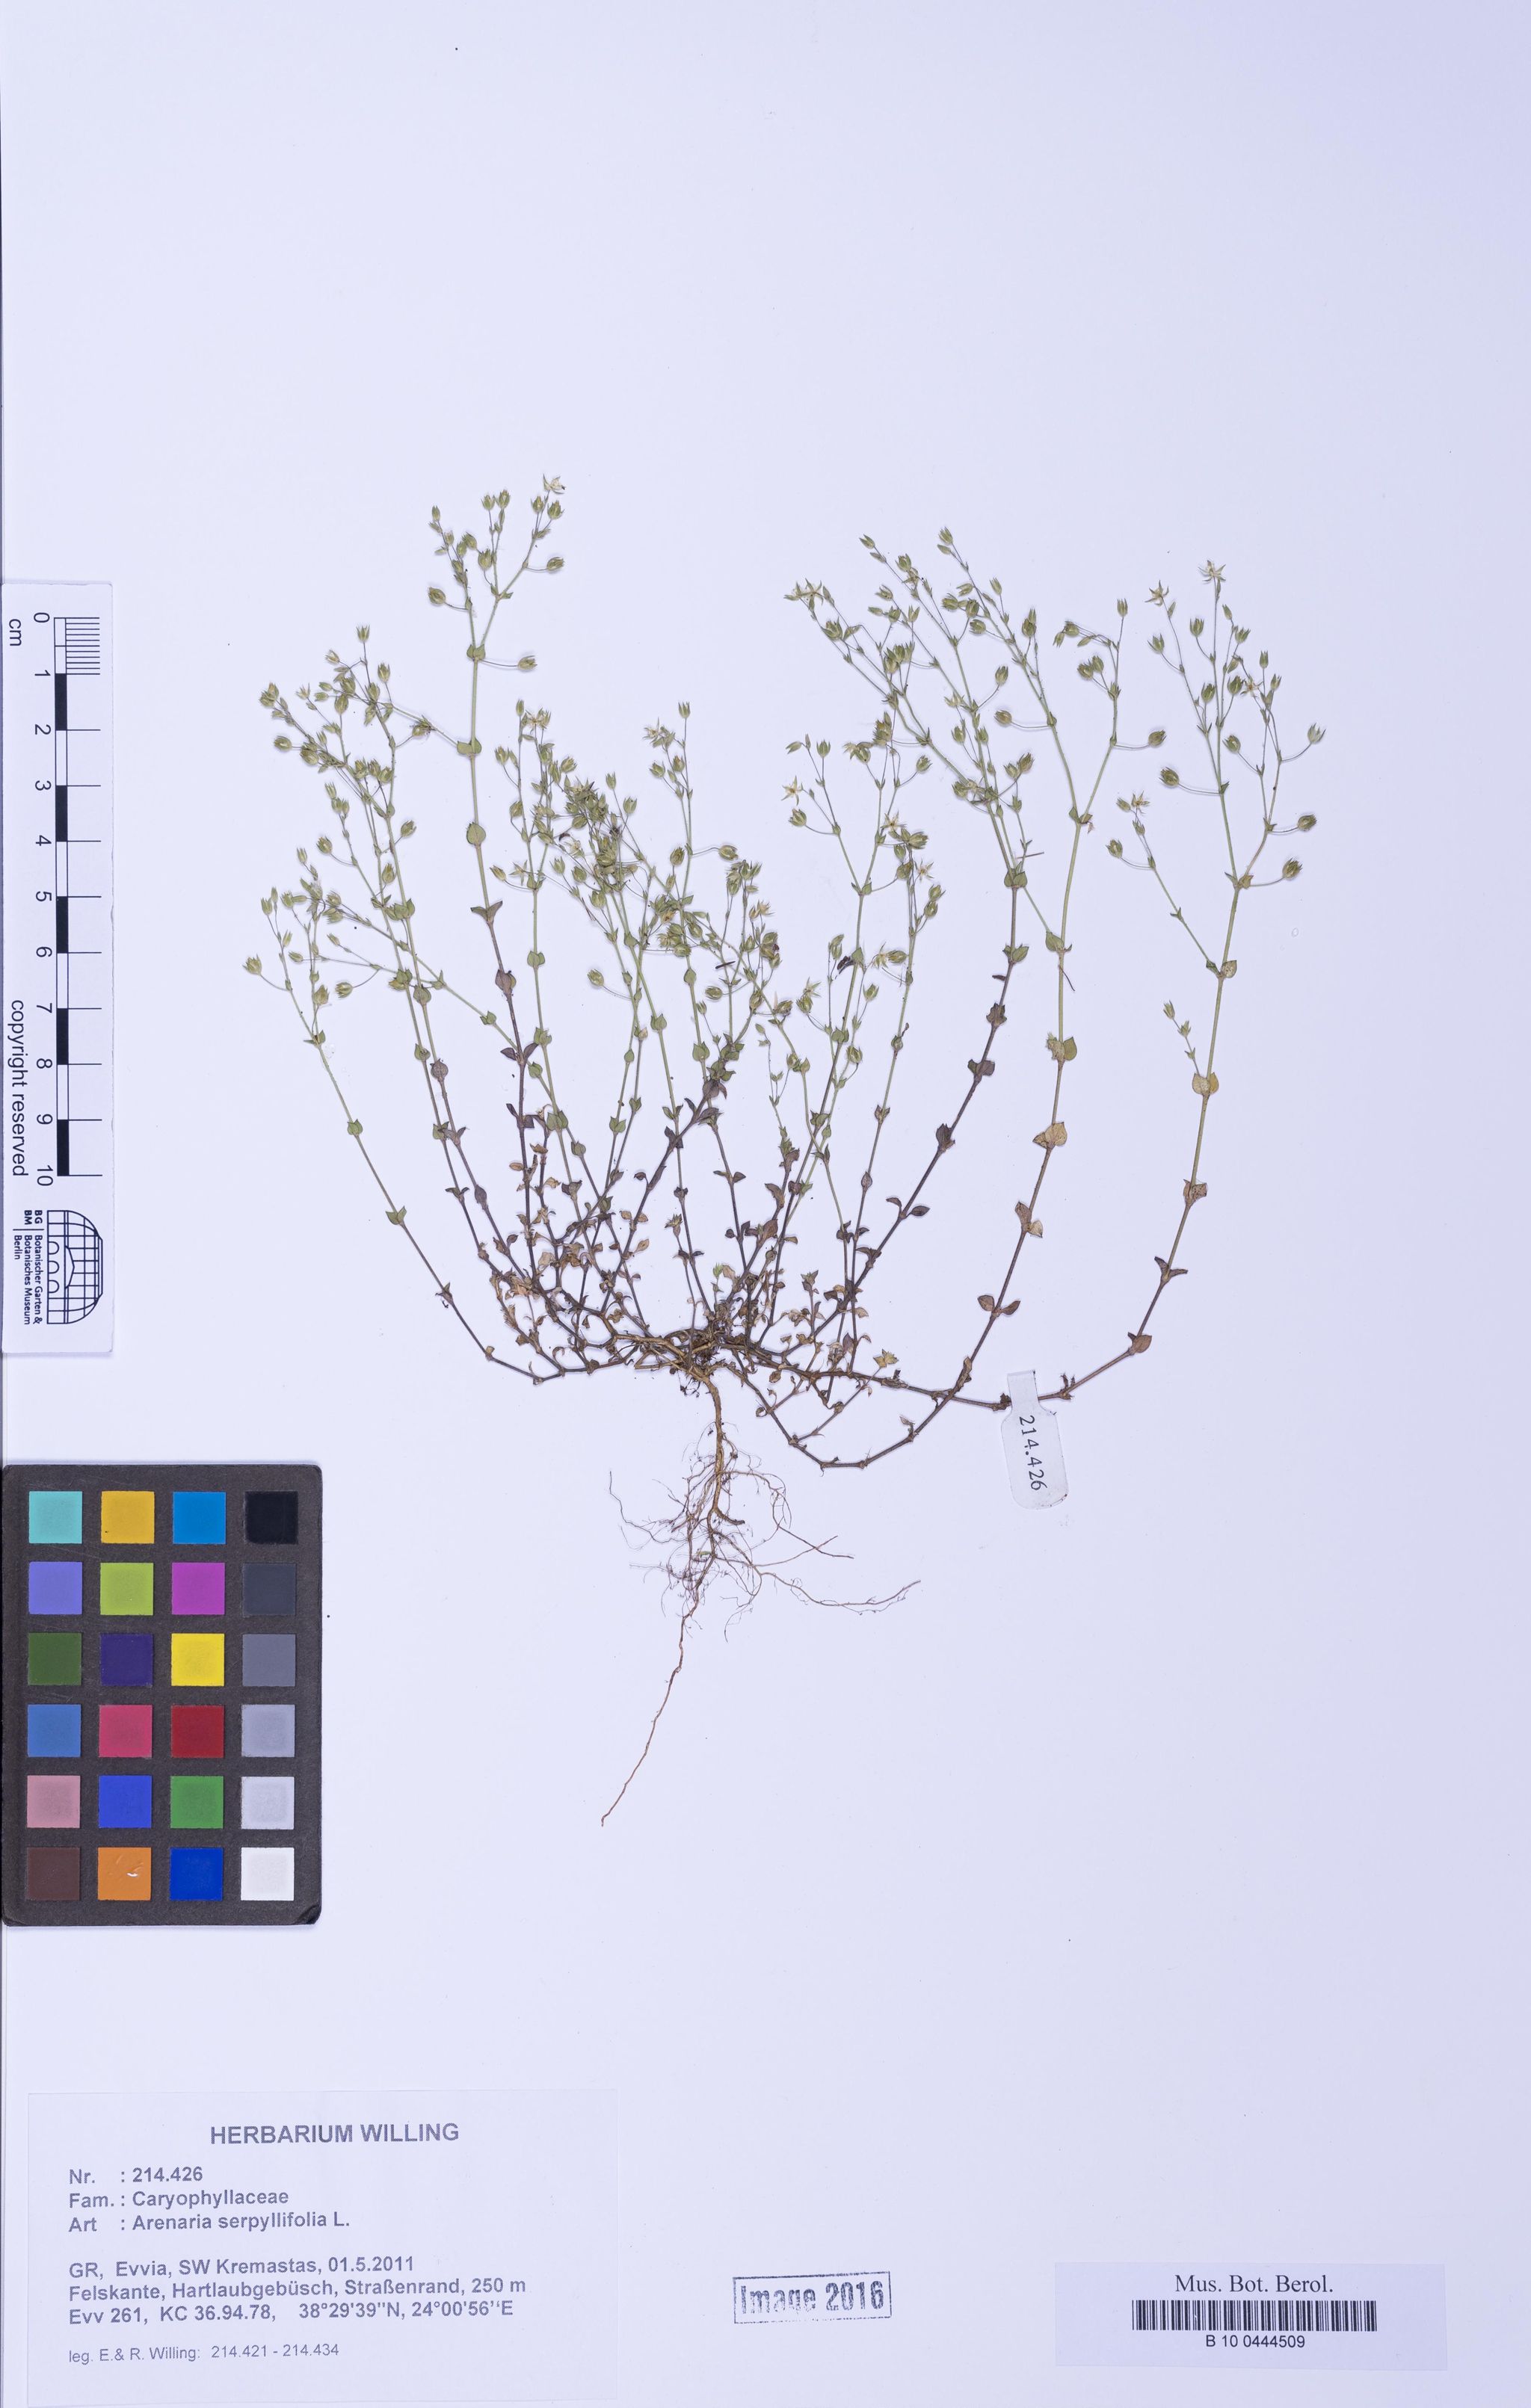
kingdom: Plantae
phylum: Tracheophyta
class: Magnoliopsida
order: Caryophyllales
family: Caryophyllaceae
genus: Arenaria
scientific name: Arenaria serpyllifolia
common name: Thyme-leaved sandwort
